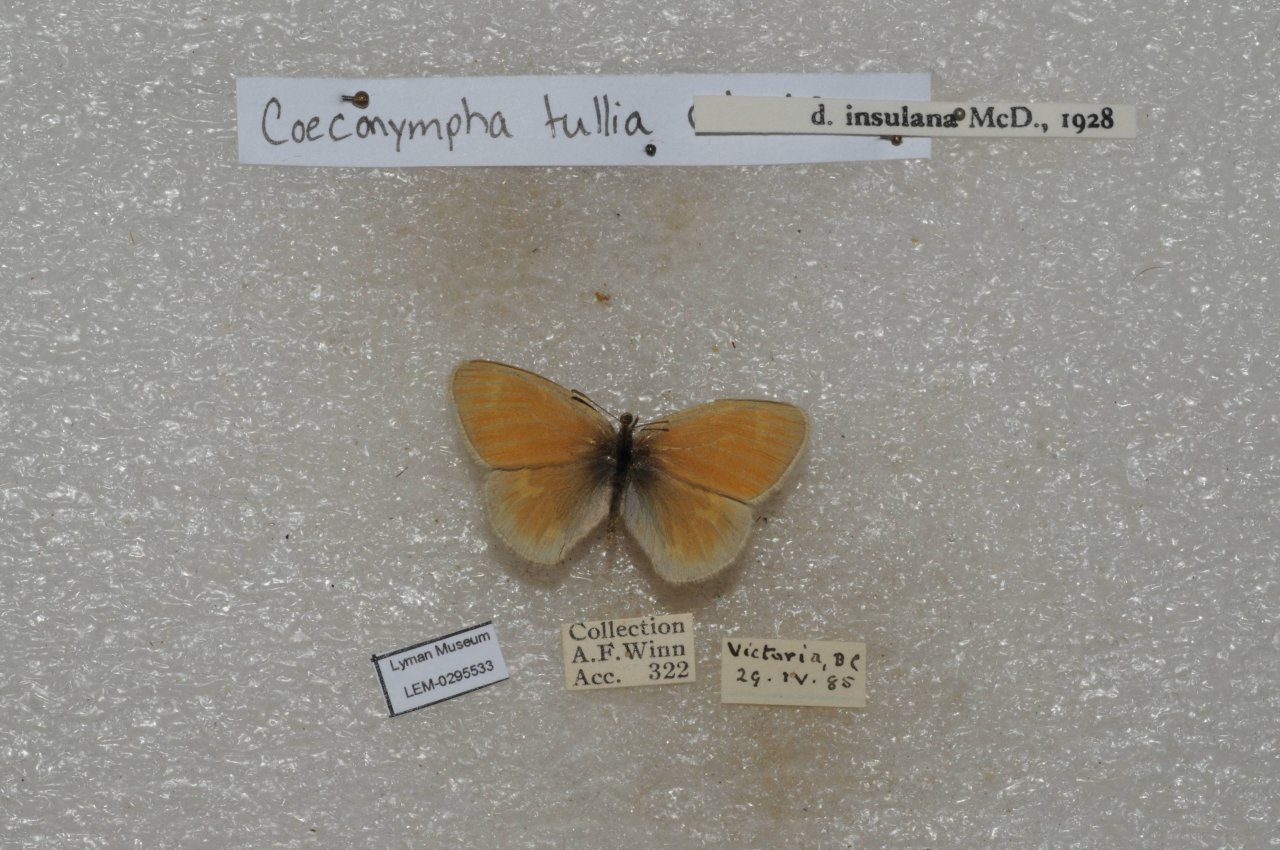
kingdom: Animalia
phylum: Arthropoda
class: Insecta
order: Lepidoptera
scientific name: Lepidoptera
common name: Butterflies
